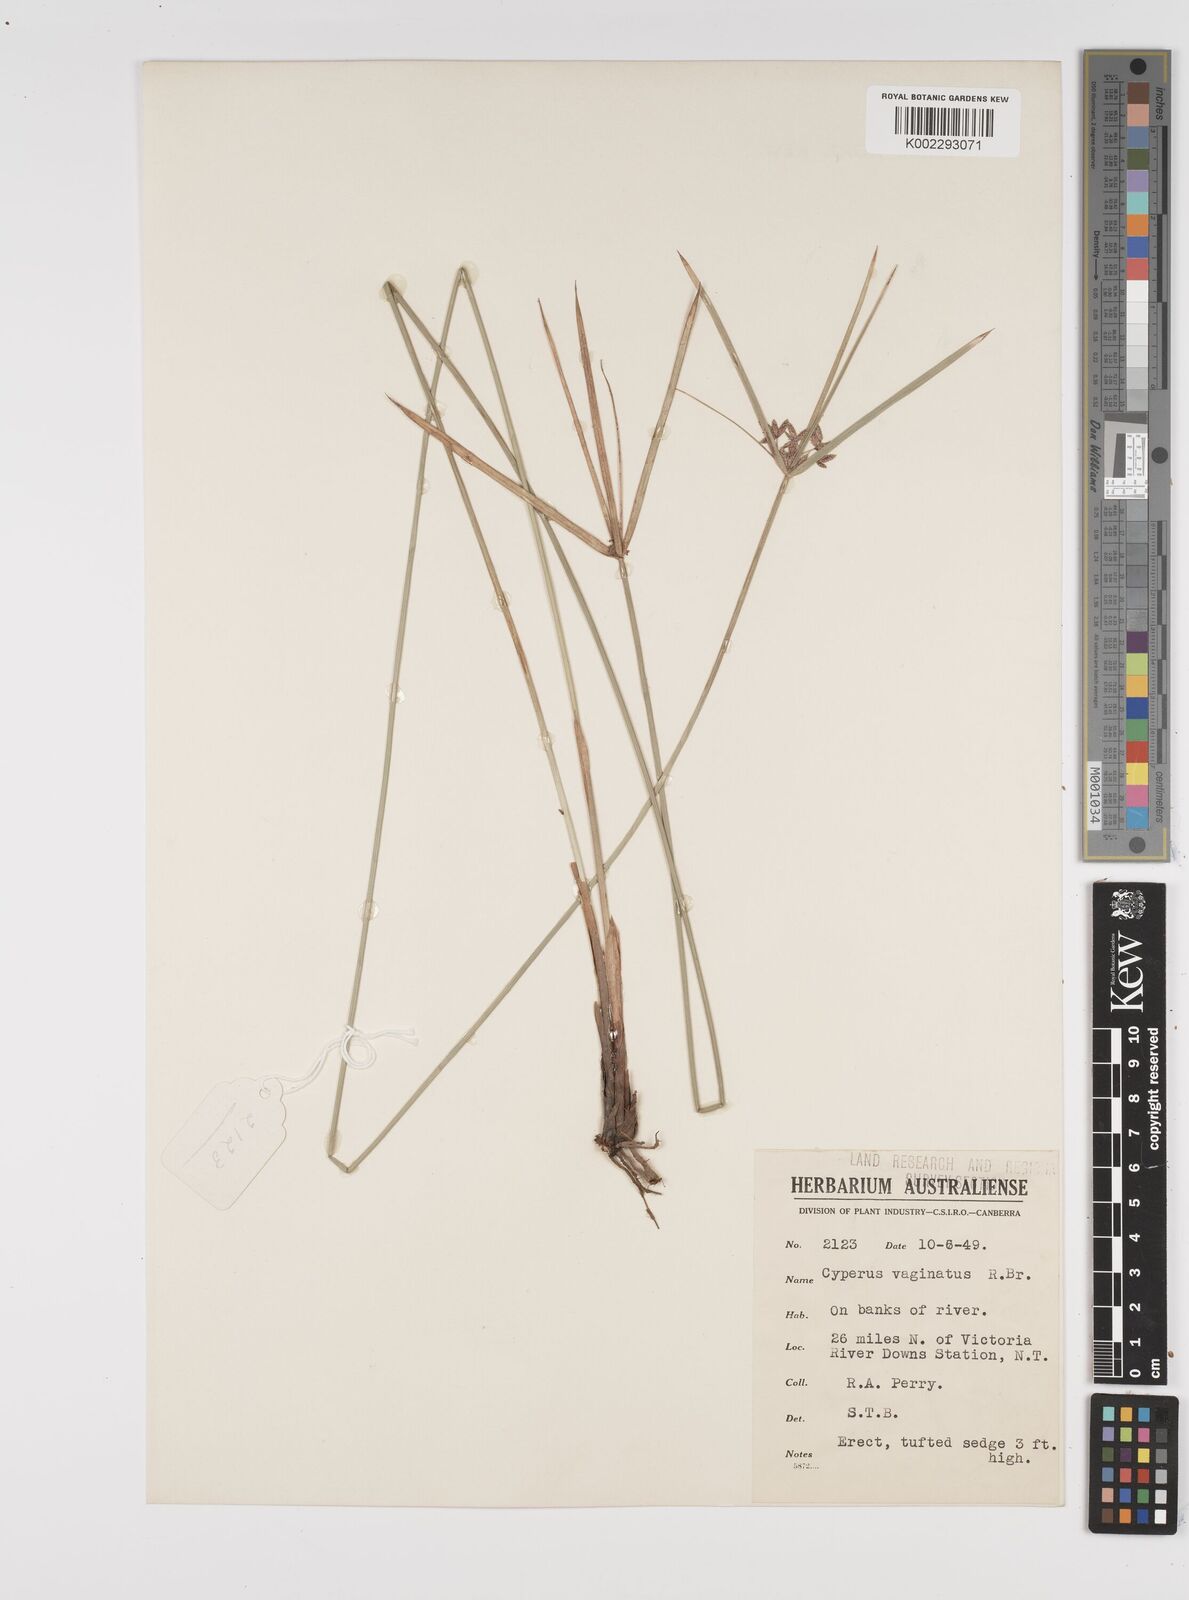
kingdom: Plantae
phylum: Tracheophyta
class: Liliopsida
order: Poales
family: Cyperaceae
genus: Cyperus
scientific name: Cyperus vaginatus
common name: Stiff-leaved flat-sedge
